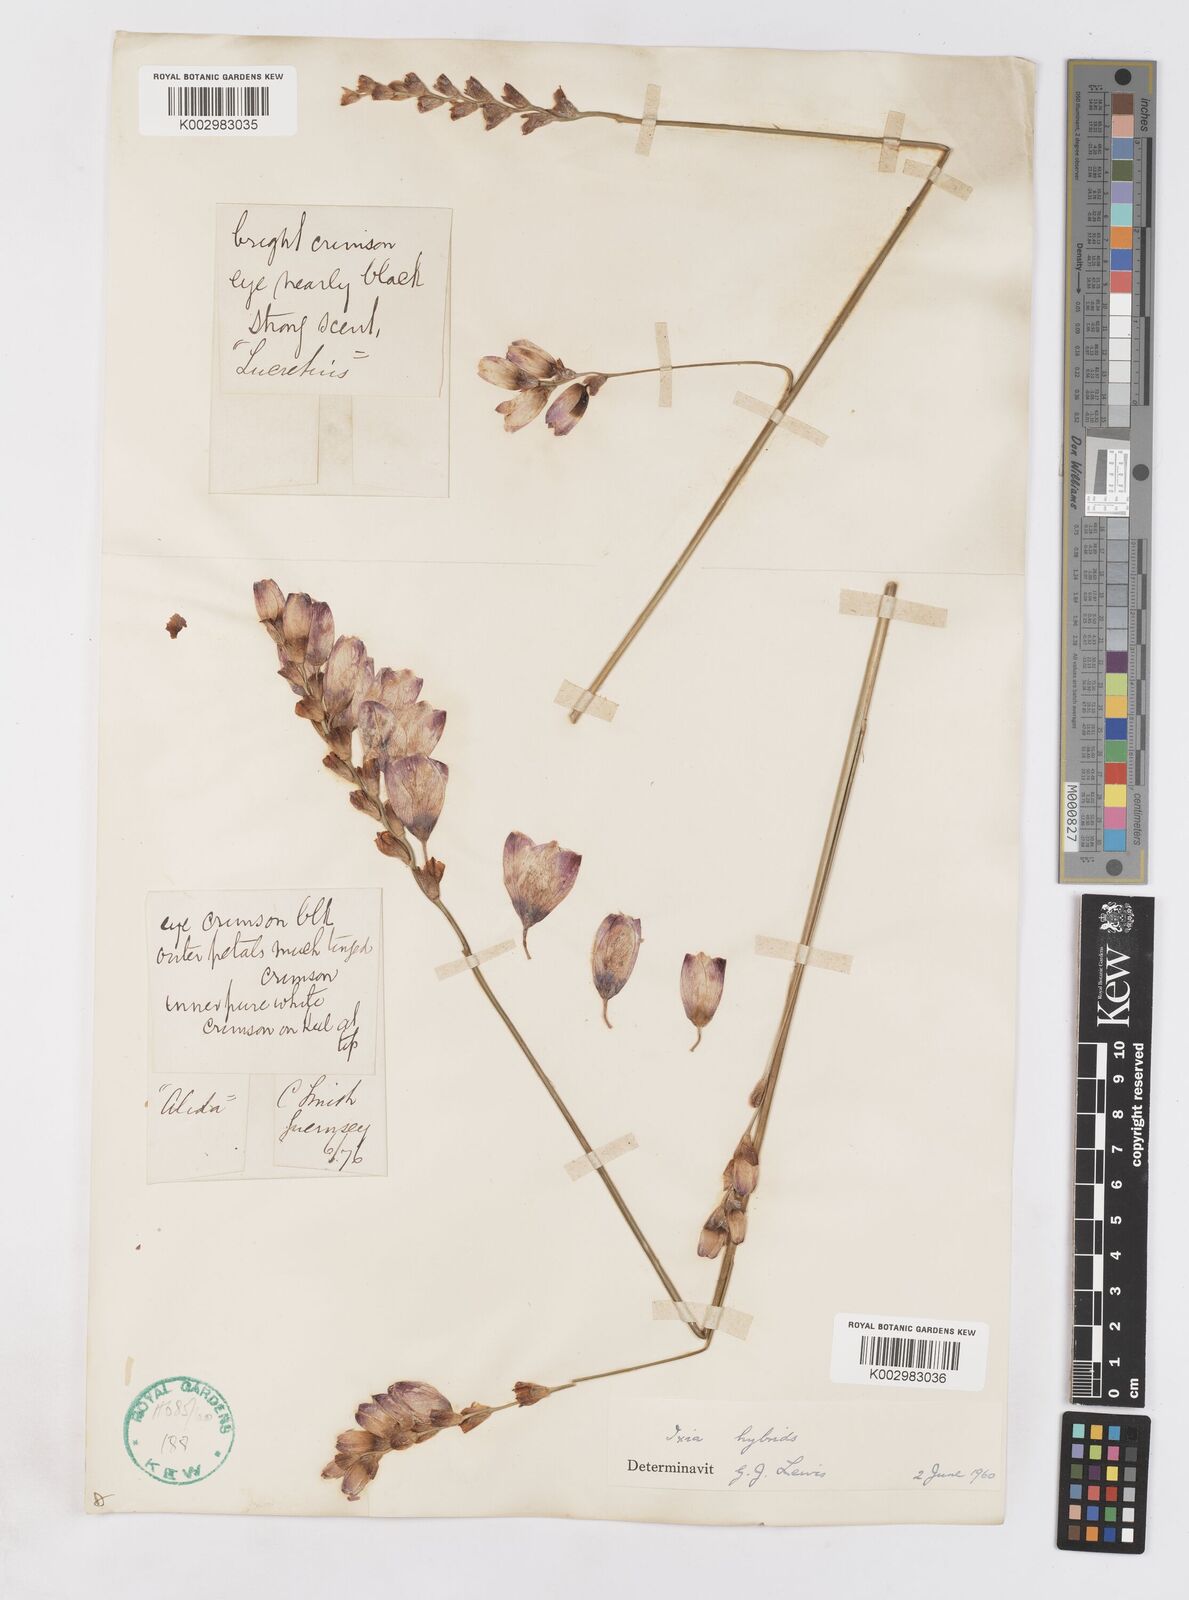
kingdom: Plantae
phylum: Tracheophyta
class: Liliopsida
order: Asparagales
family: Iridaceae
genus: Ixia
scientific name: Ixia polystachya
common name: White-and-yellow-flower cornlily
